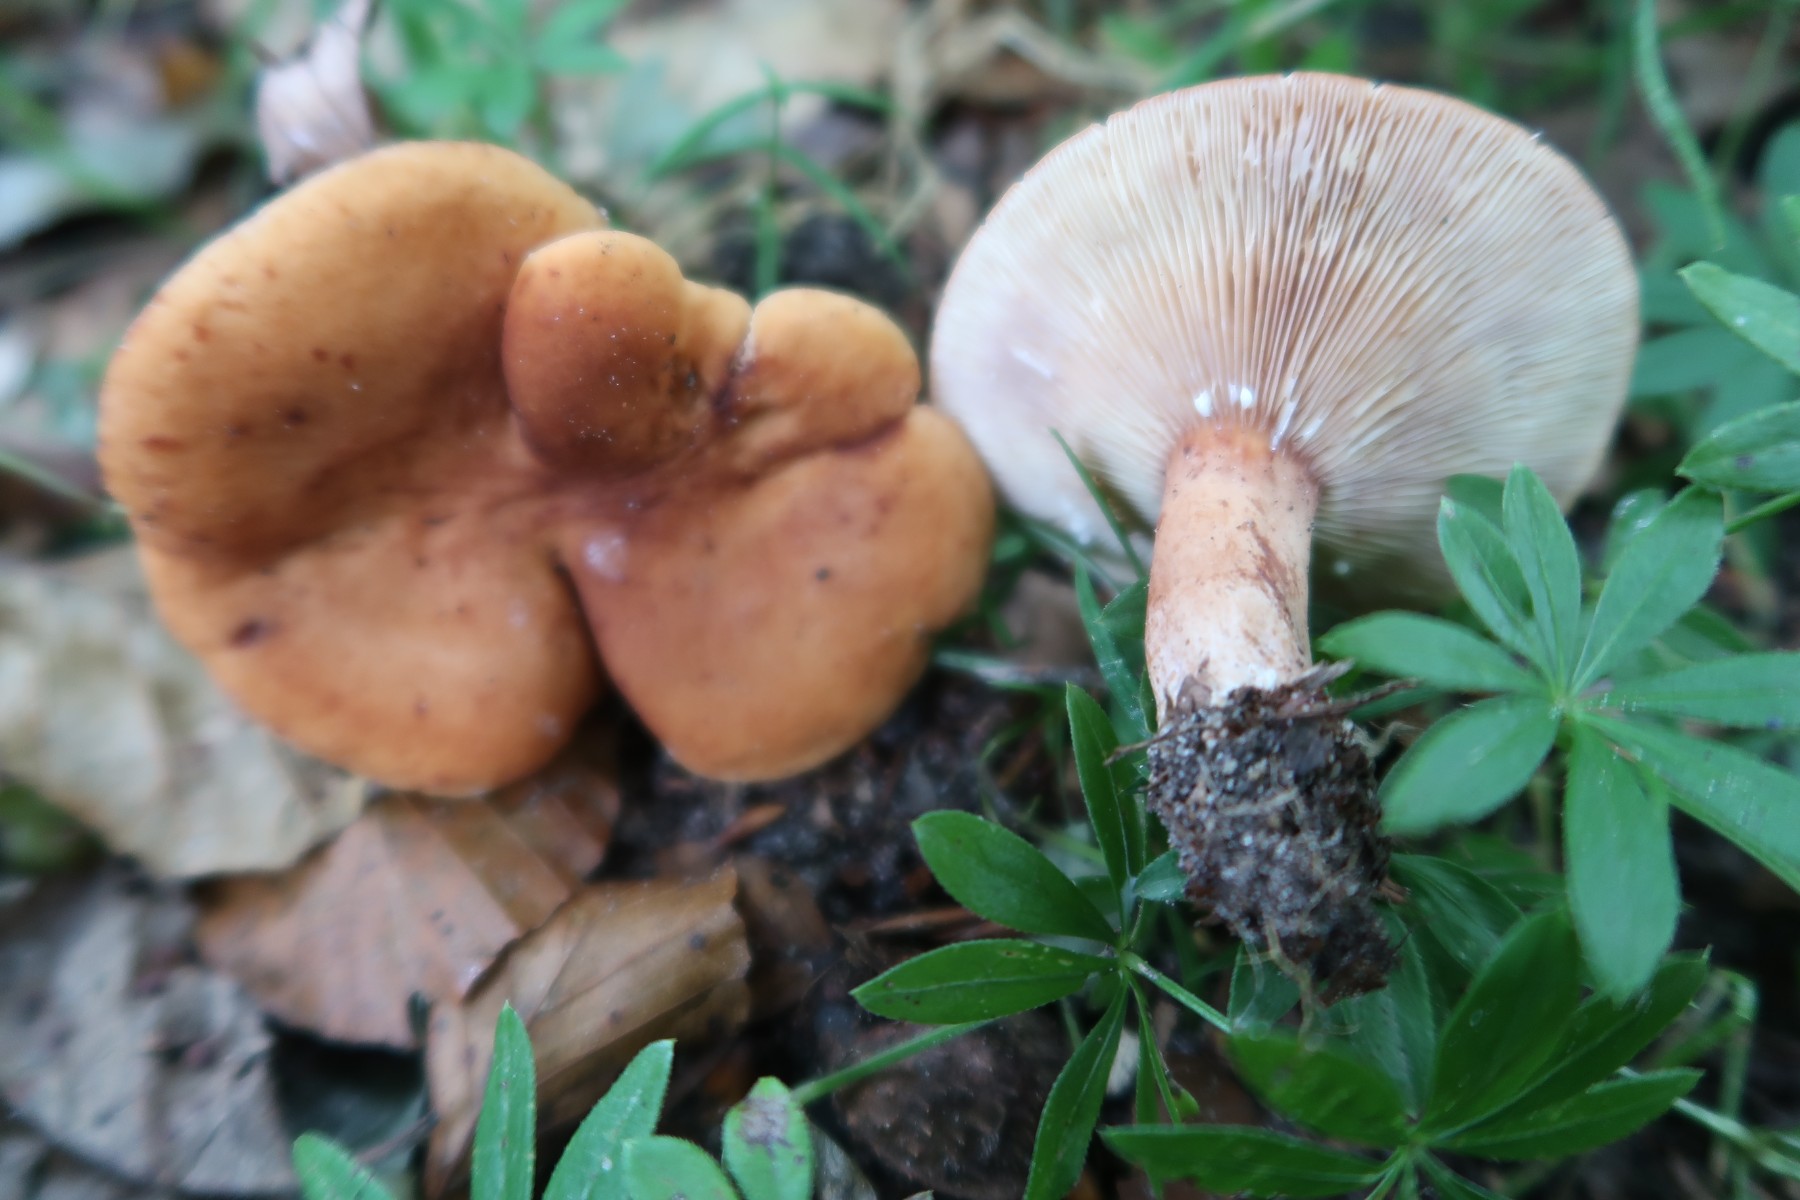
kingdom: Fungi
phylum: Basidiomycota
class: Agaricomycetes
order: Russulales
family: Russulaceae
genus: Lactarius
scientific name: Lactarius rubrocinctus
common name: halsbånd-mælkehat
